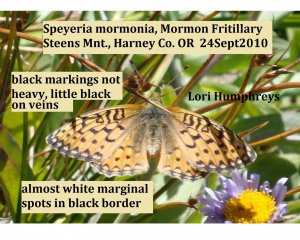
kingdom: Animalia
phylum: Arthropoda
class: Insecta
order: Lepidoptera
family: Nymphalidae
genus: Speyeria
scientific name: Speyeria mormonia
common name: Mormon Fritillary
